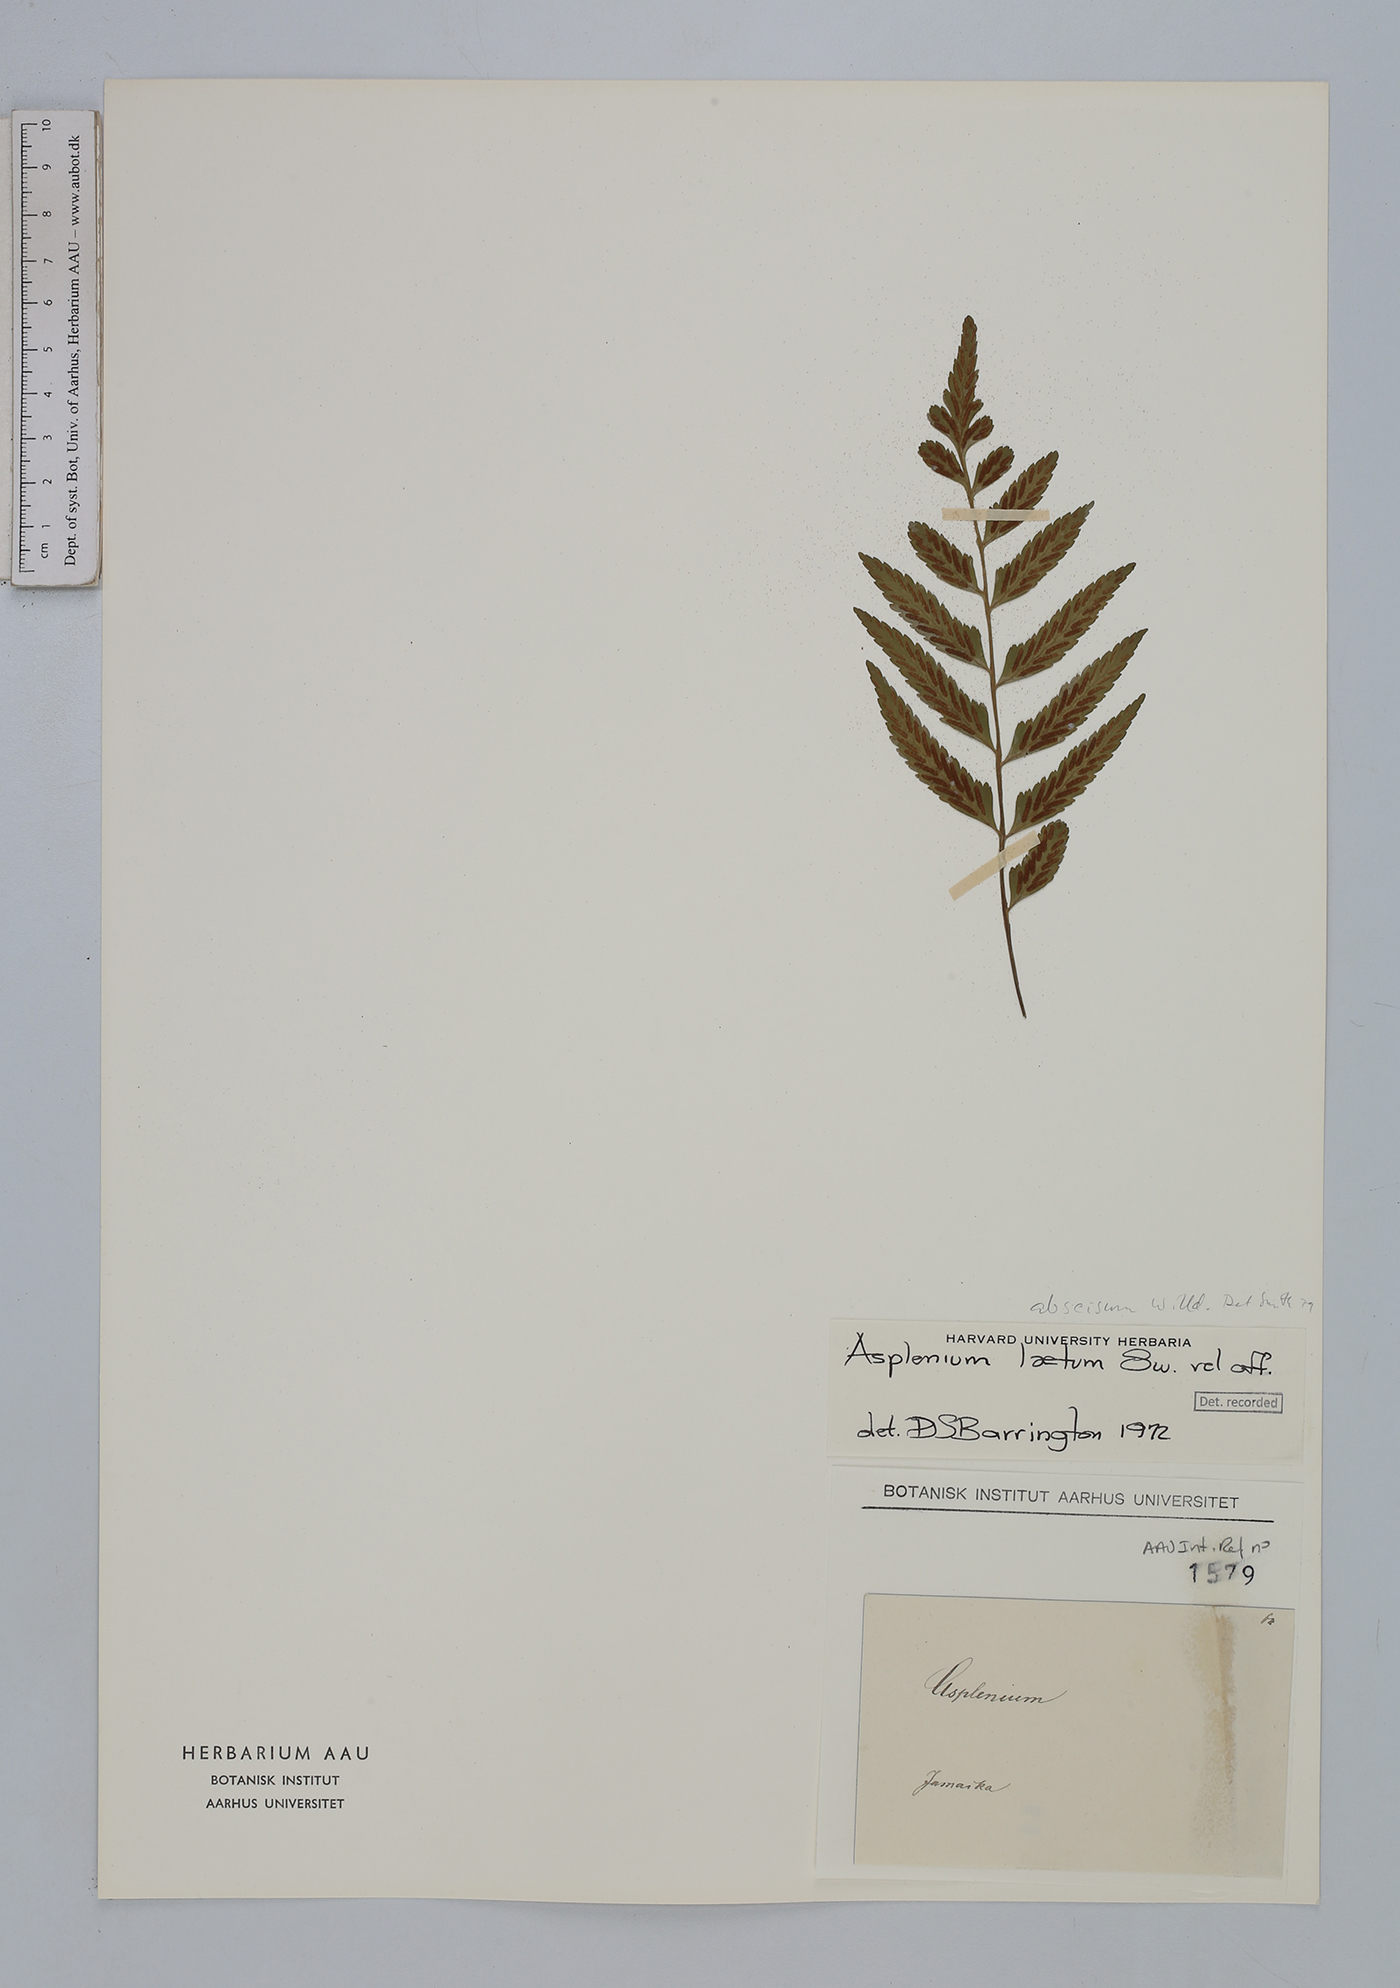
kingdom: Plantae
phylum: Tracheophyta
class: Polypodiopsida
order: Polypodiales
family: Aspleniaceae
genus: Asplenium
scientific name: Asplenium abscissum
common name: Cutleaf spleenwort
